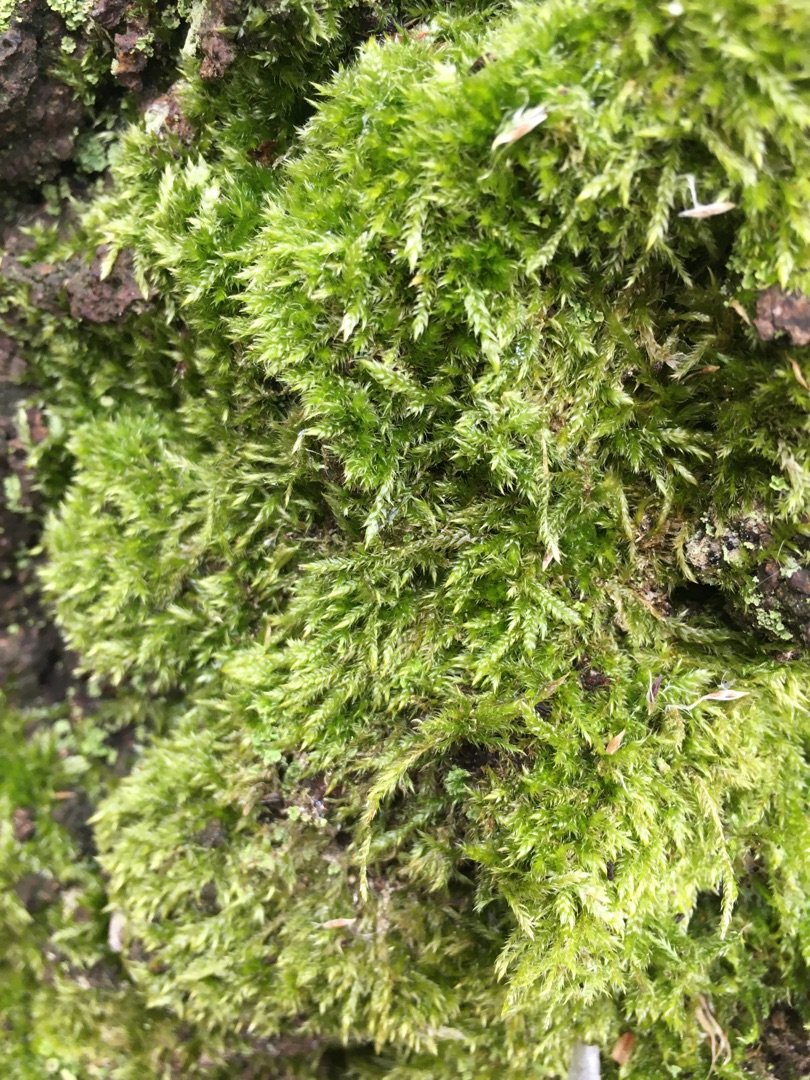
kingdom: Plantae
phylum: Bryophyta
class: Bryopsida
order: Hypnales
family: Hypnaceae
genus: Hypnum
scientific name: Hypnum
